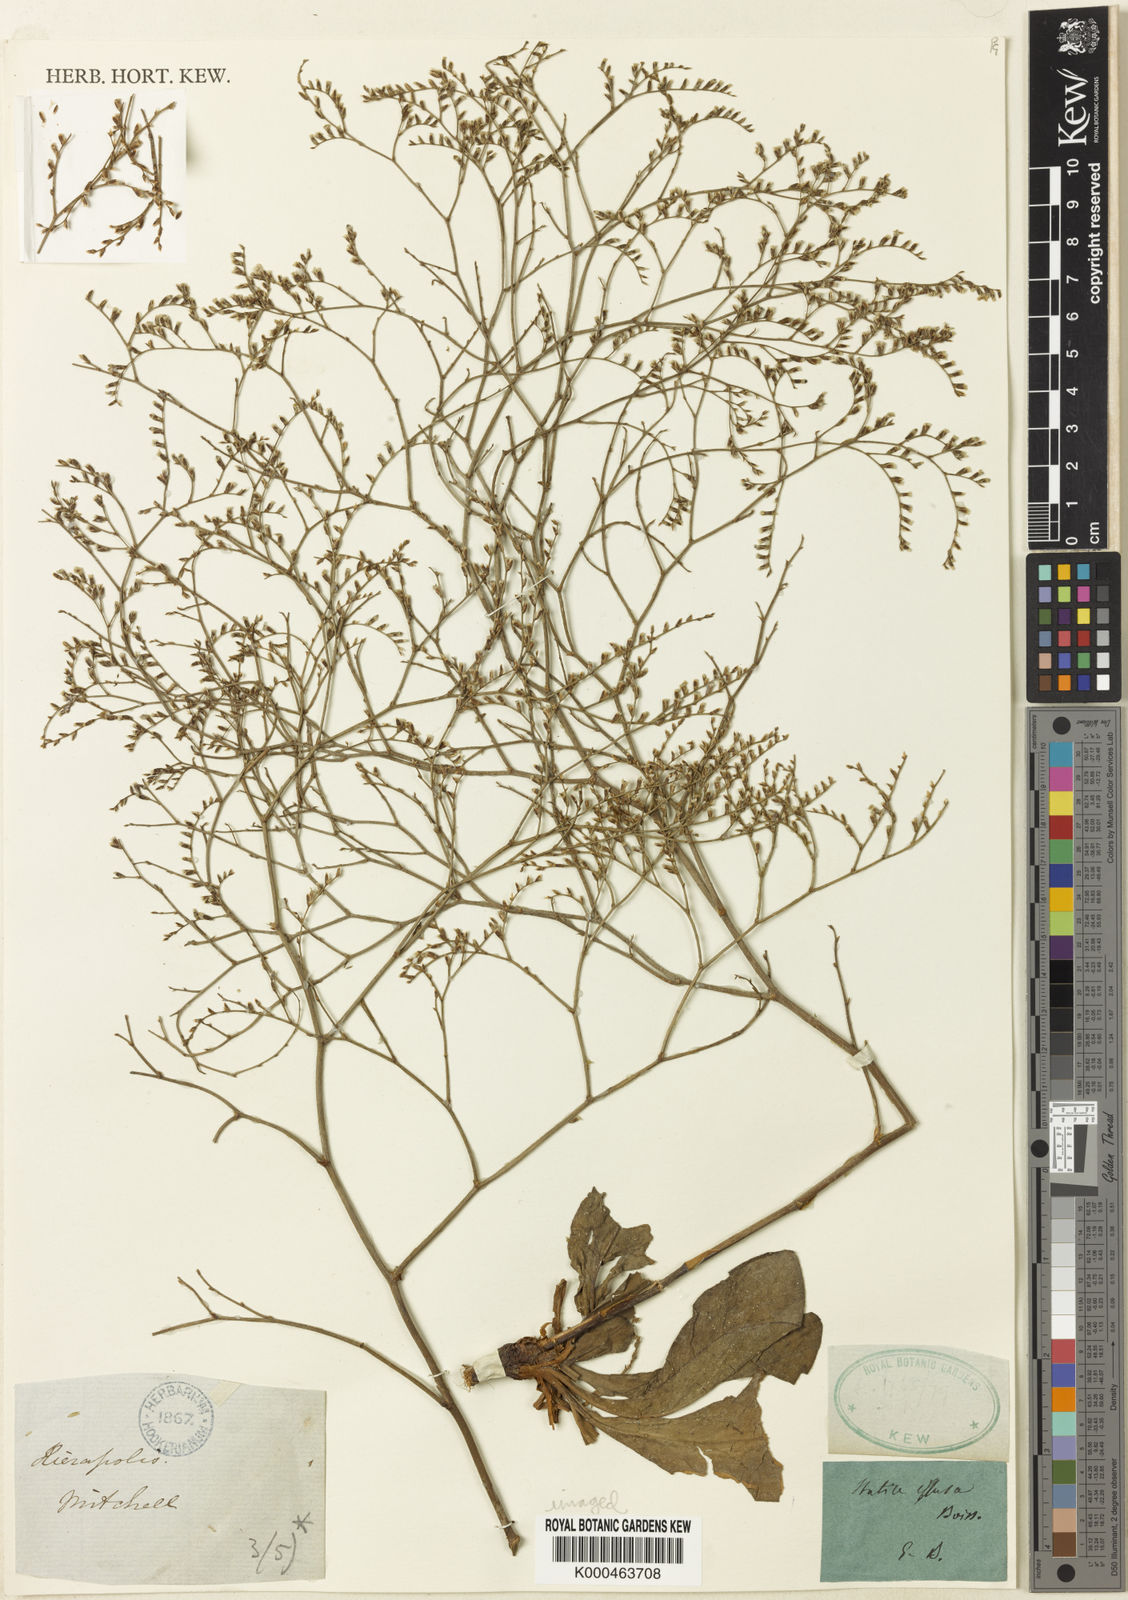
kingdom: Plantae
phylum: Tracheophyta
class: Magnoliopsida
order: Caryophyllales
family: Plumbaginaceae
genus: Limonium
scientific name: Limonium effusum
